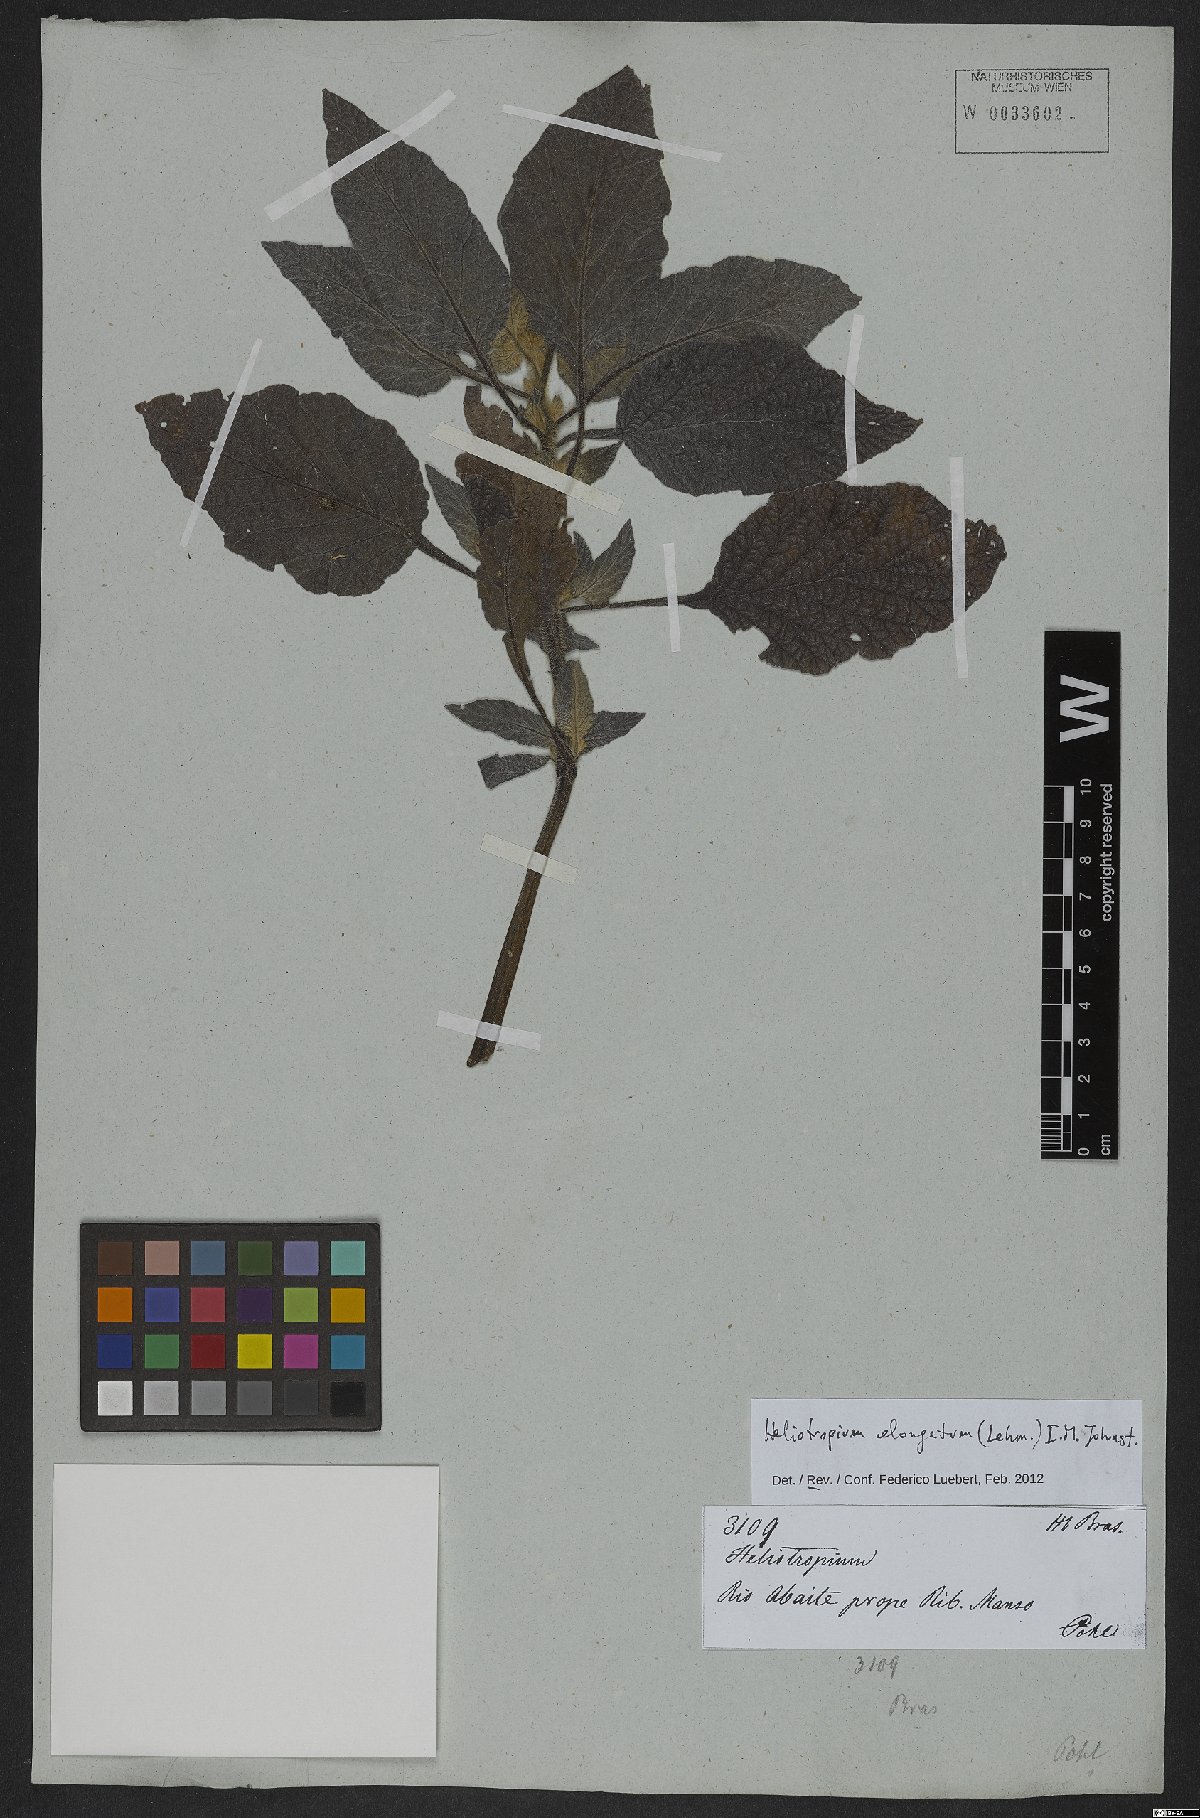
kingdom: Plantae
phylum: Tracheophyta
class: Magnoliopsida
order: Boraginales
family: Heliotropiaceae
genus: Heliotropium
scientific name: Heliotropium elongatum
